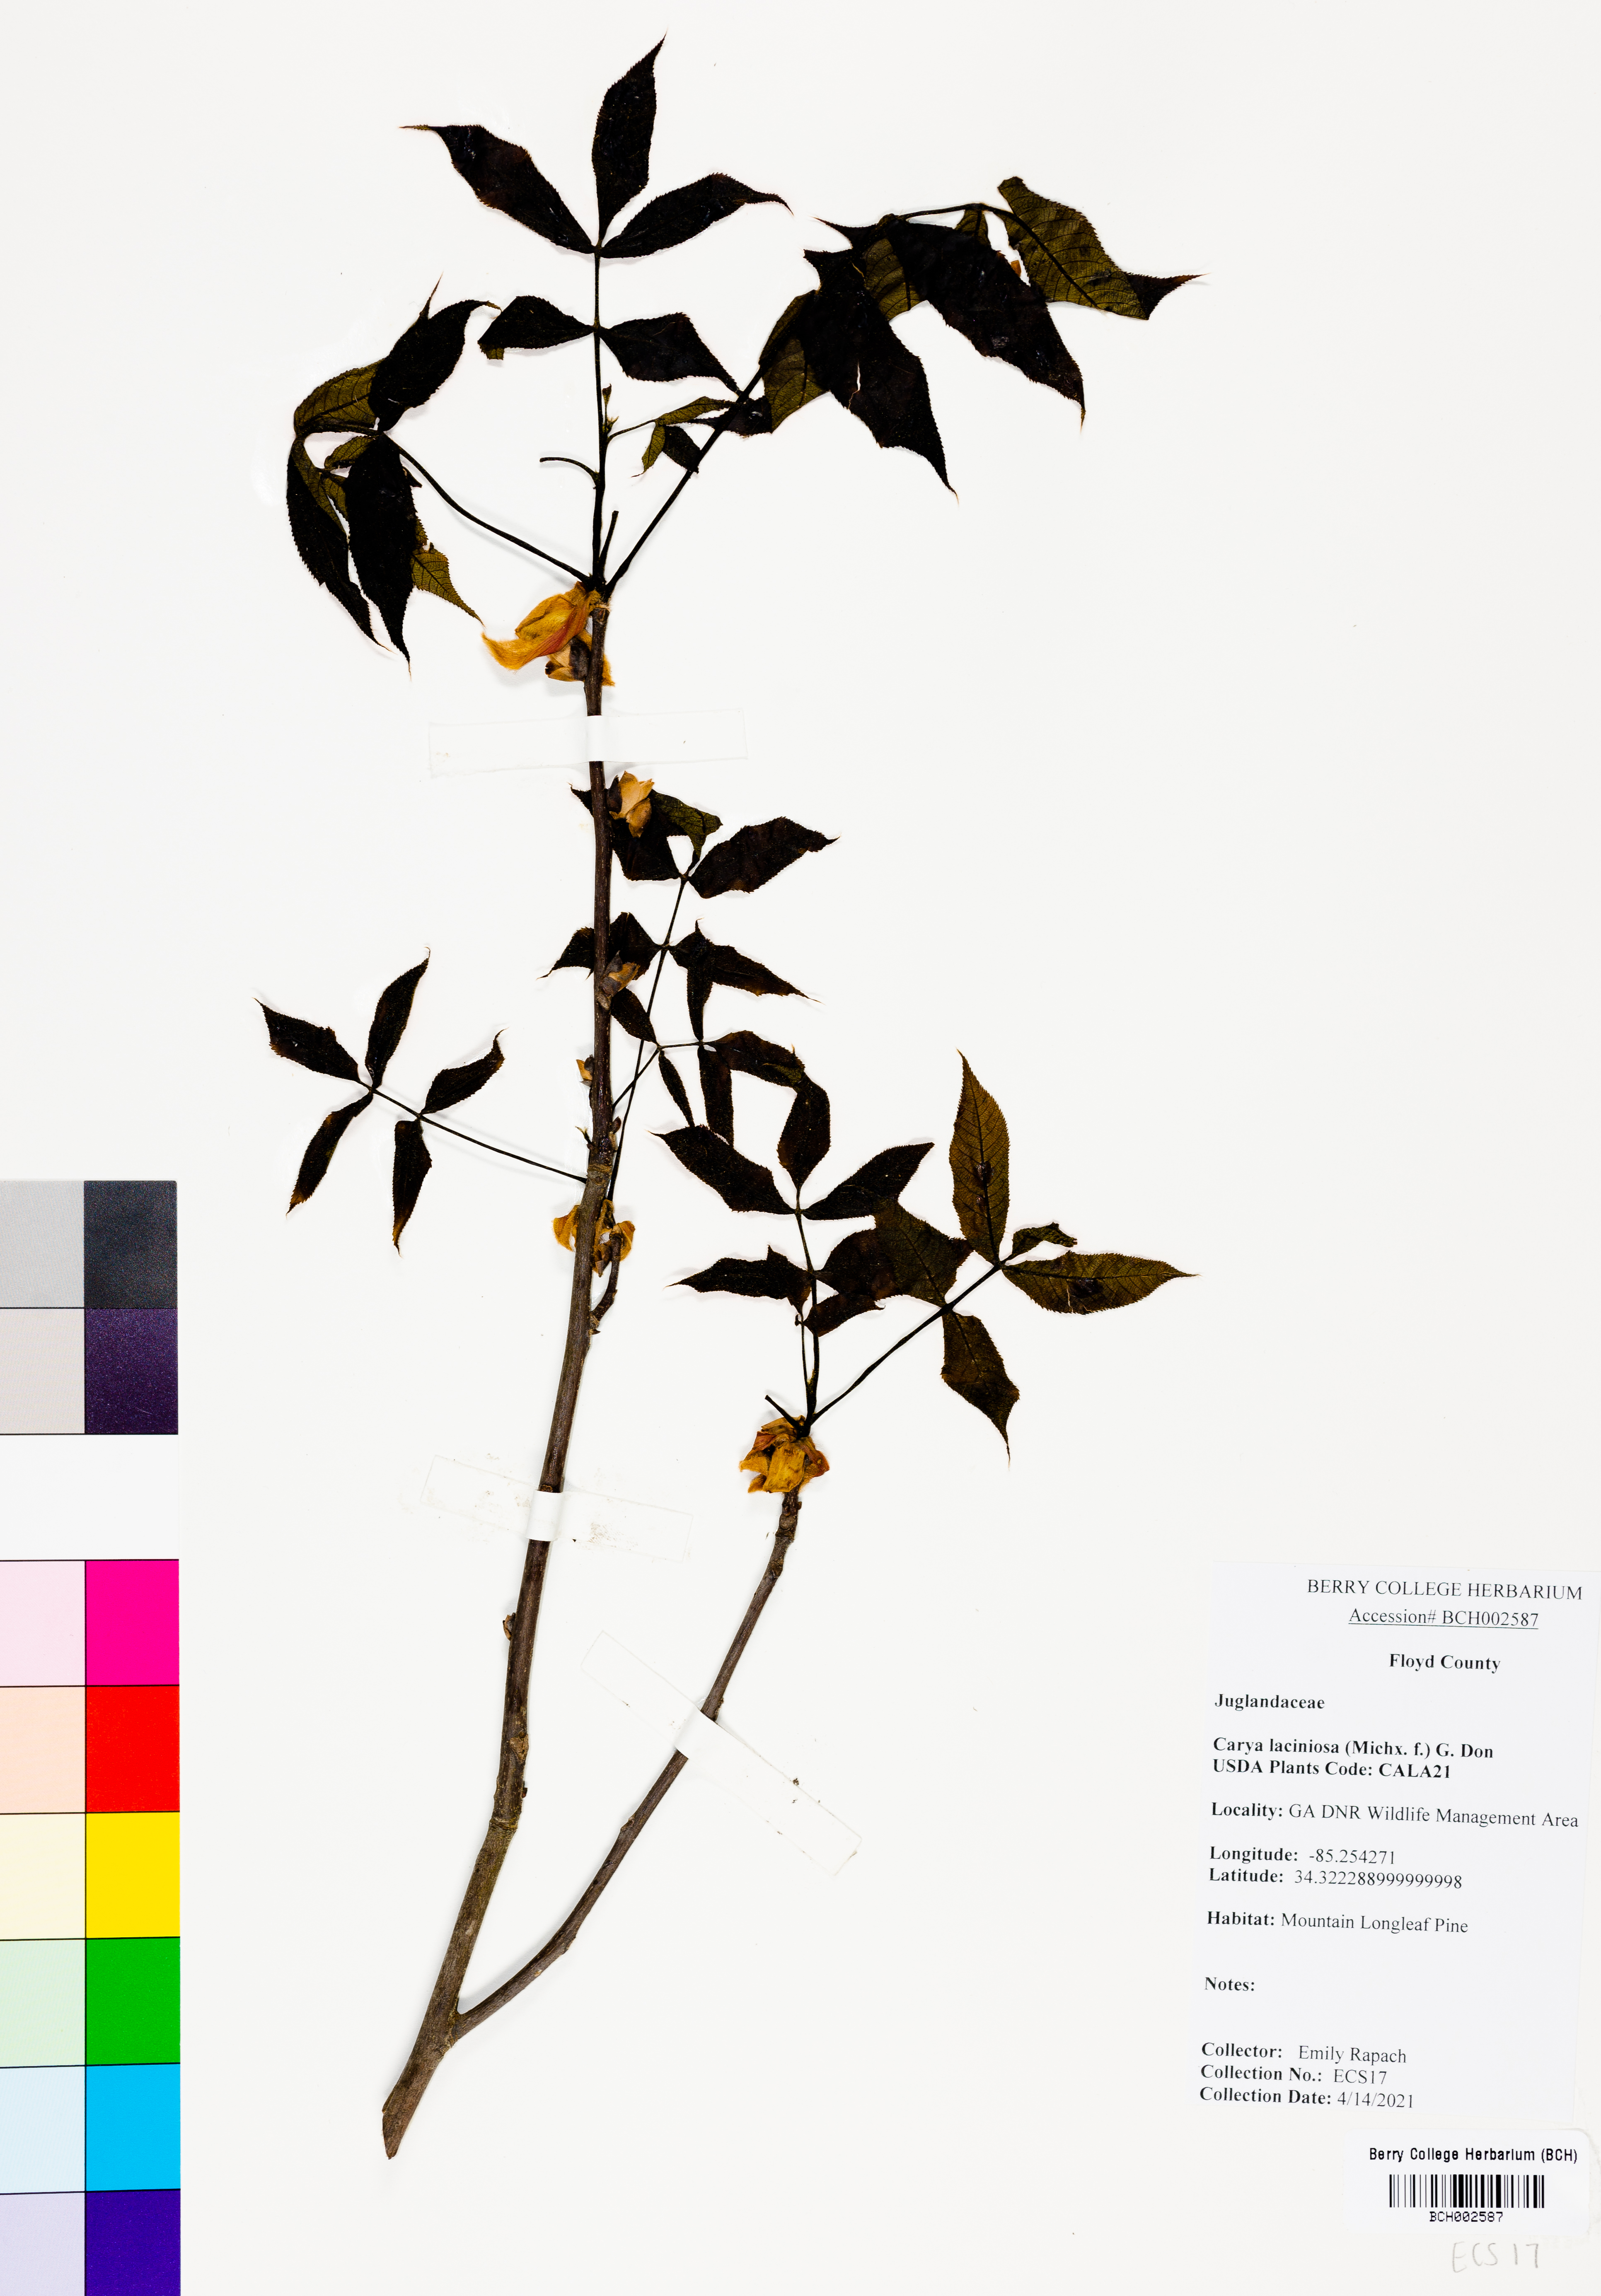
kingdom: Plantae
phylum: Tracheophyta
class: Magnoliopsida
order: Fagales
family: Juglandaceae
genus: Carya
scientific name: Carya laciniosa
